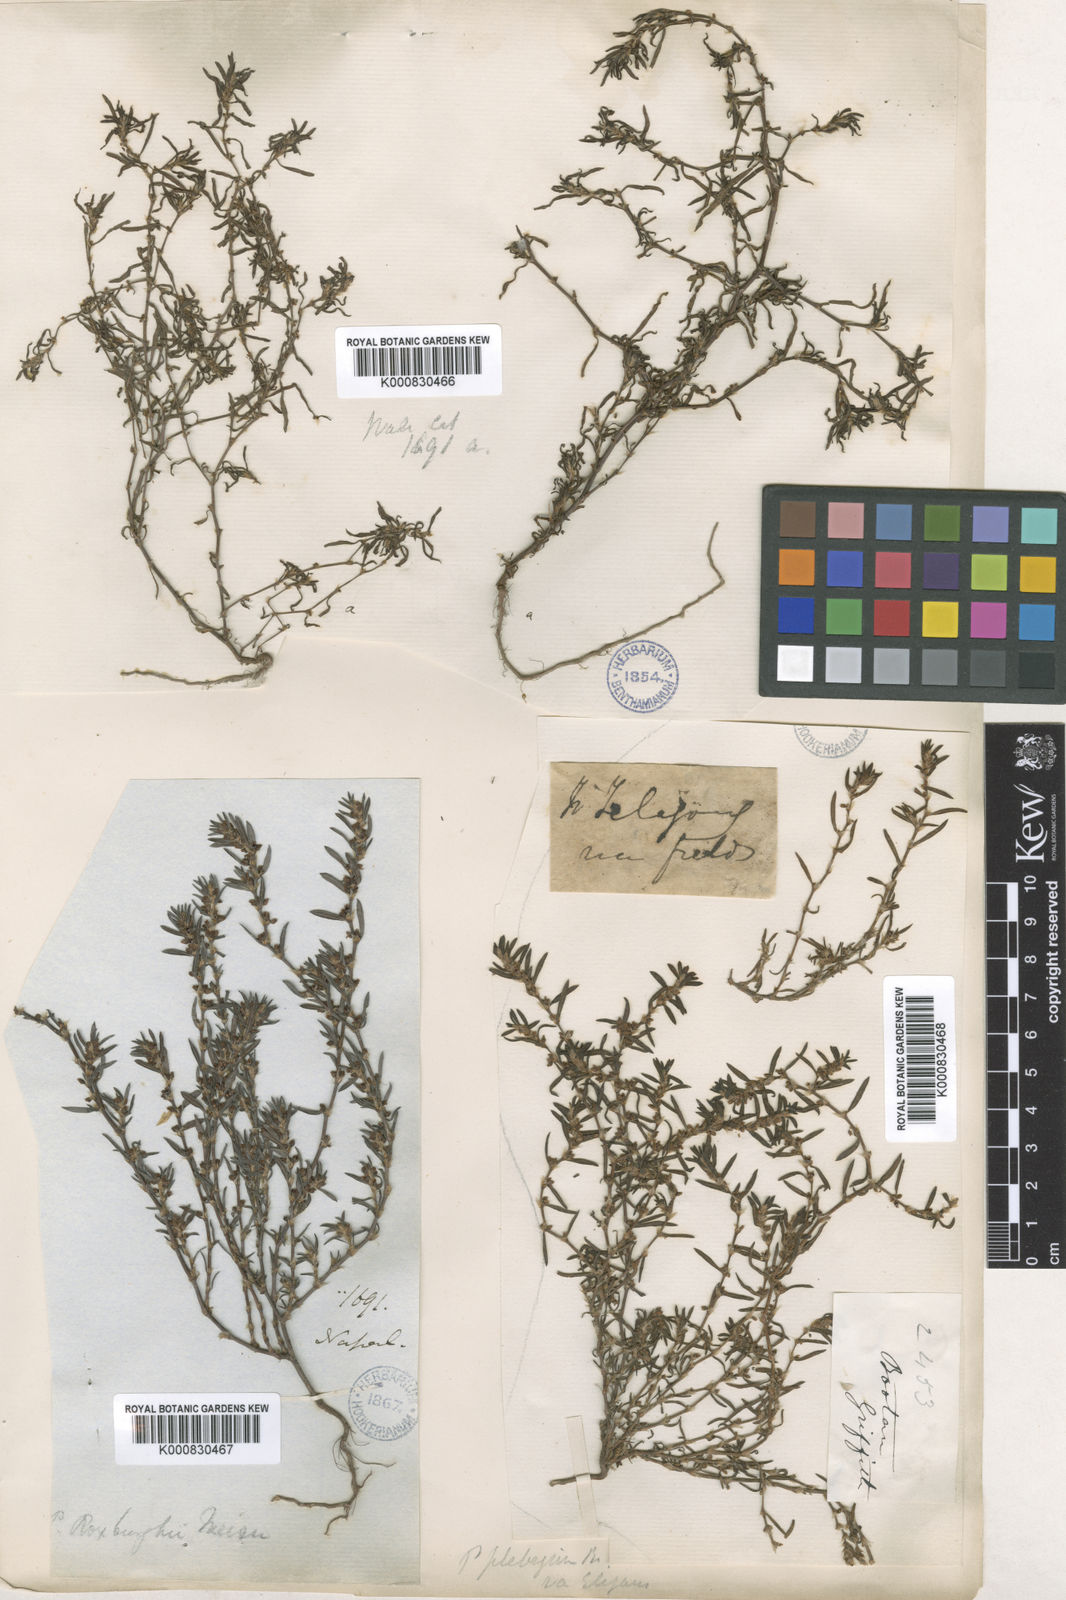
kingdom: Plantae
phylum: Tracheophyta
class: Magnoliopsida
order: Caryophyllales
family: Polygonaceae
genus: Polygonum
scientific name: Polygonum plebeium
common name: Common knotweed
